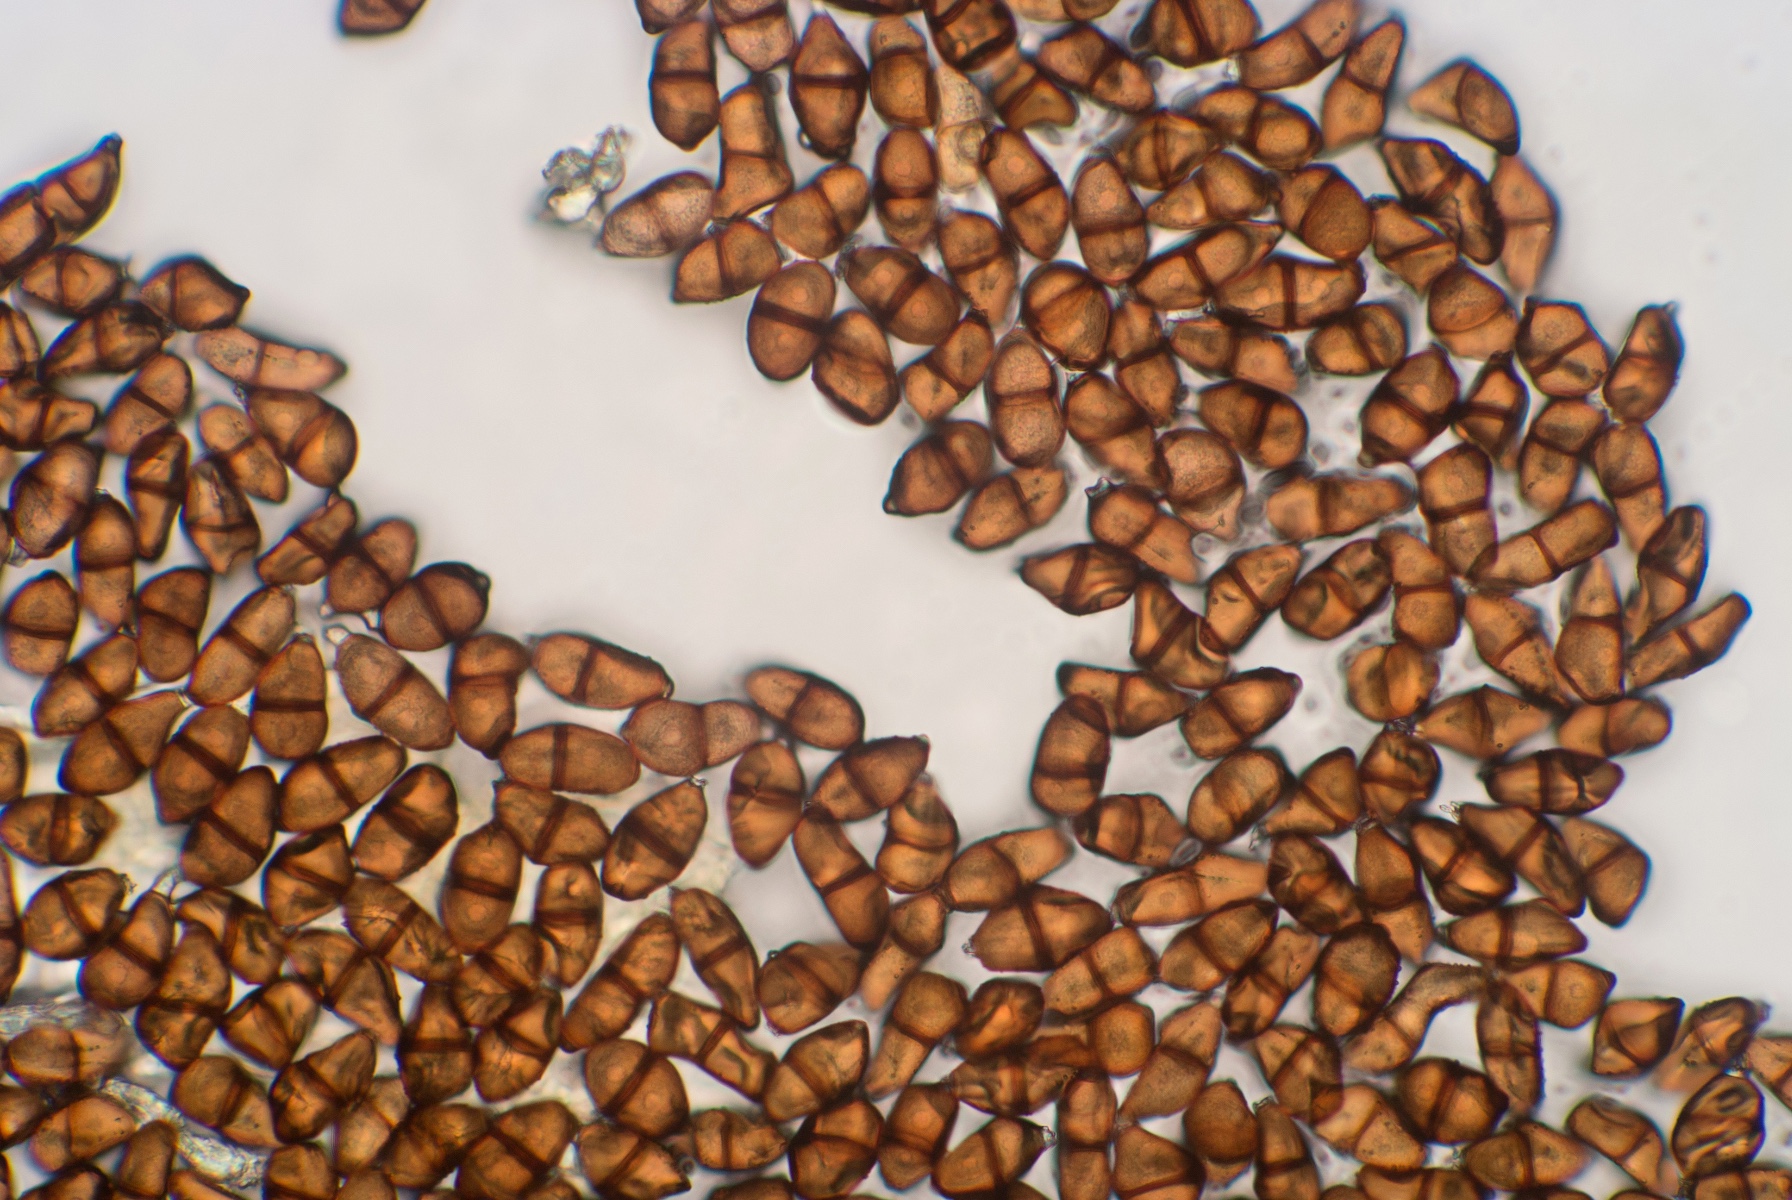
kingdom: Fungi
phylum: Basidiomycota
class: Pucciniomycetes
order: Pucciniales
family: Pucciniaceae
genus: Puccinia
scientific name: Puccinia
